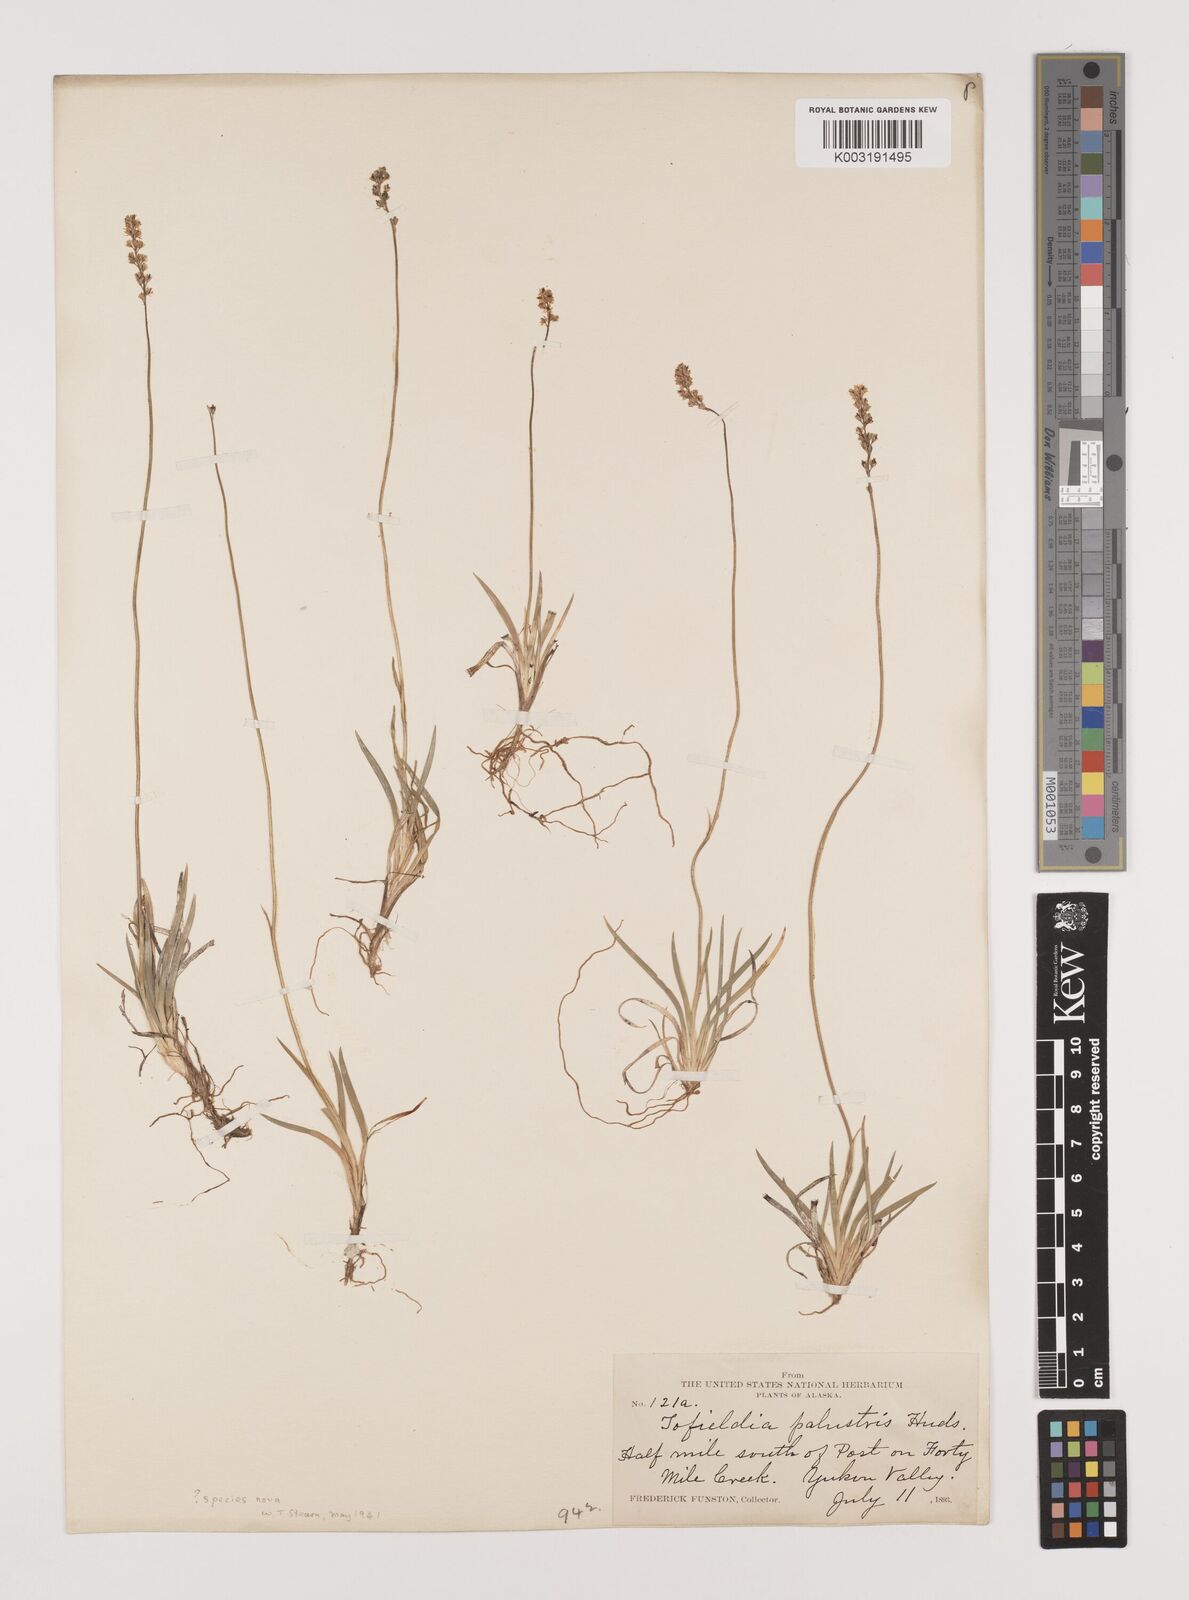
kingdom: Plantae
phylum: Tracheophyta
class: Liliopsida
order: Alismatales
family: Tofieldiaceae
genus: Tofieldia
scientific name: Tofieldia
